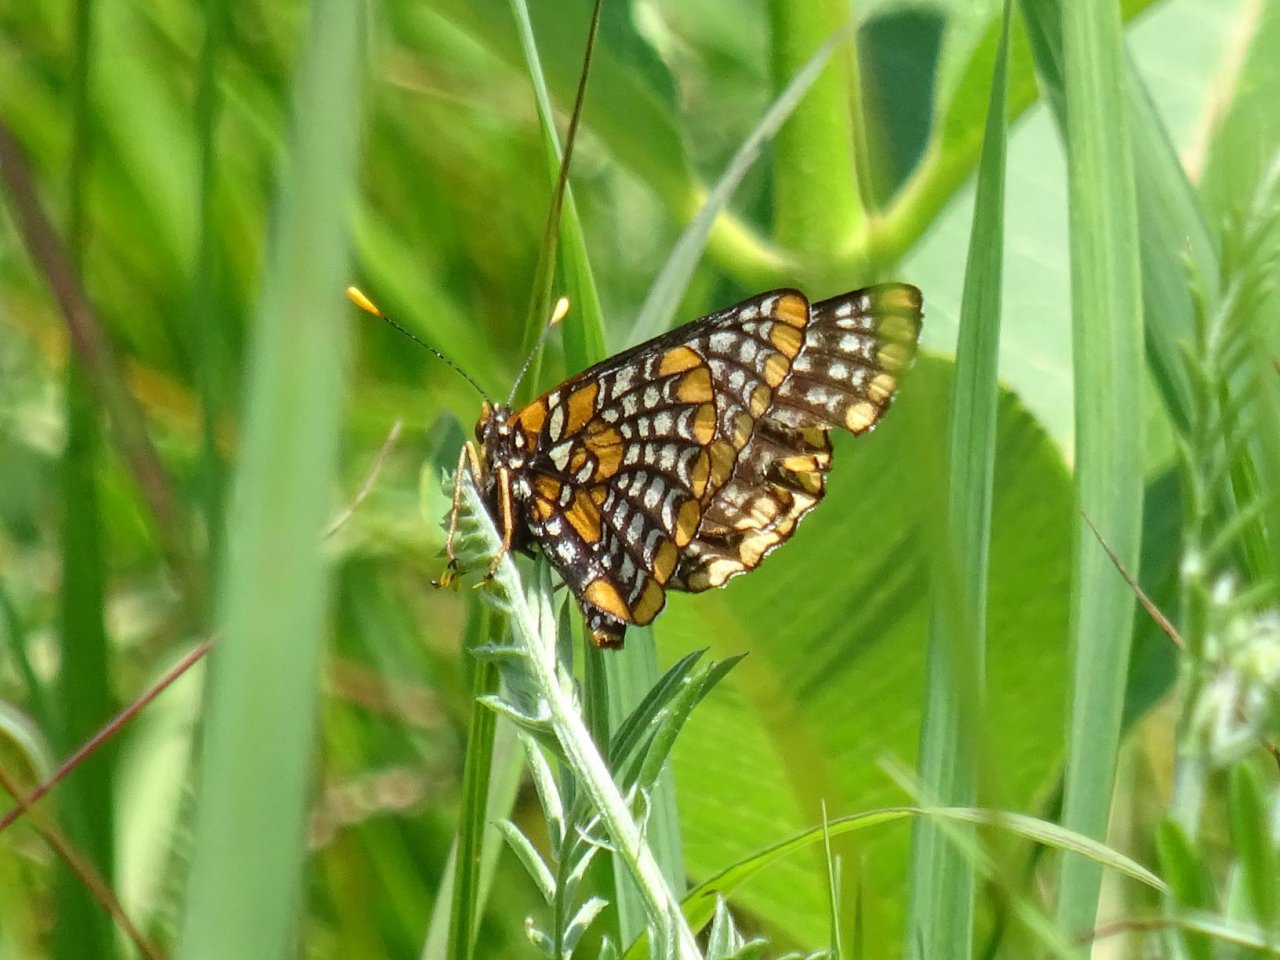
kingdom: Animalia
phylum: Arthropoda
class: Insecta
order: Lepidoptera
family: Nymphalidae
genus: Euphydryas
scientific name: Euphydryas phaeton
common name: Baltimore Checkerspot
